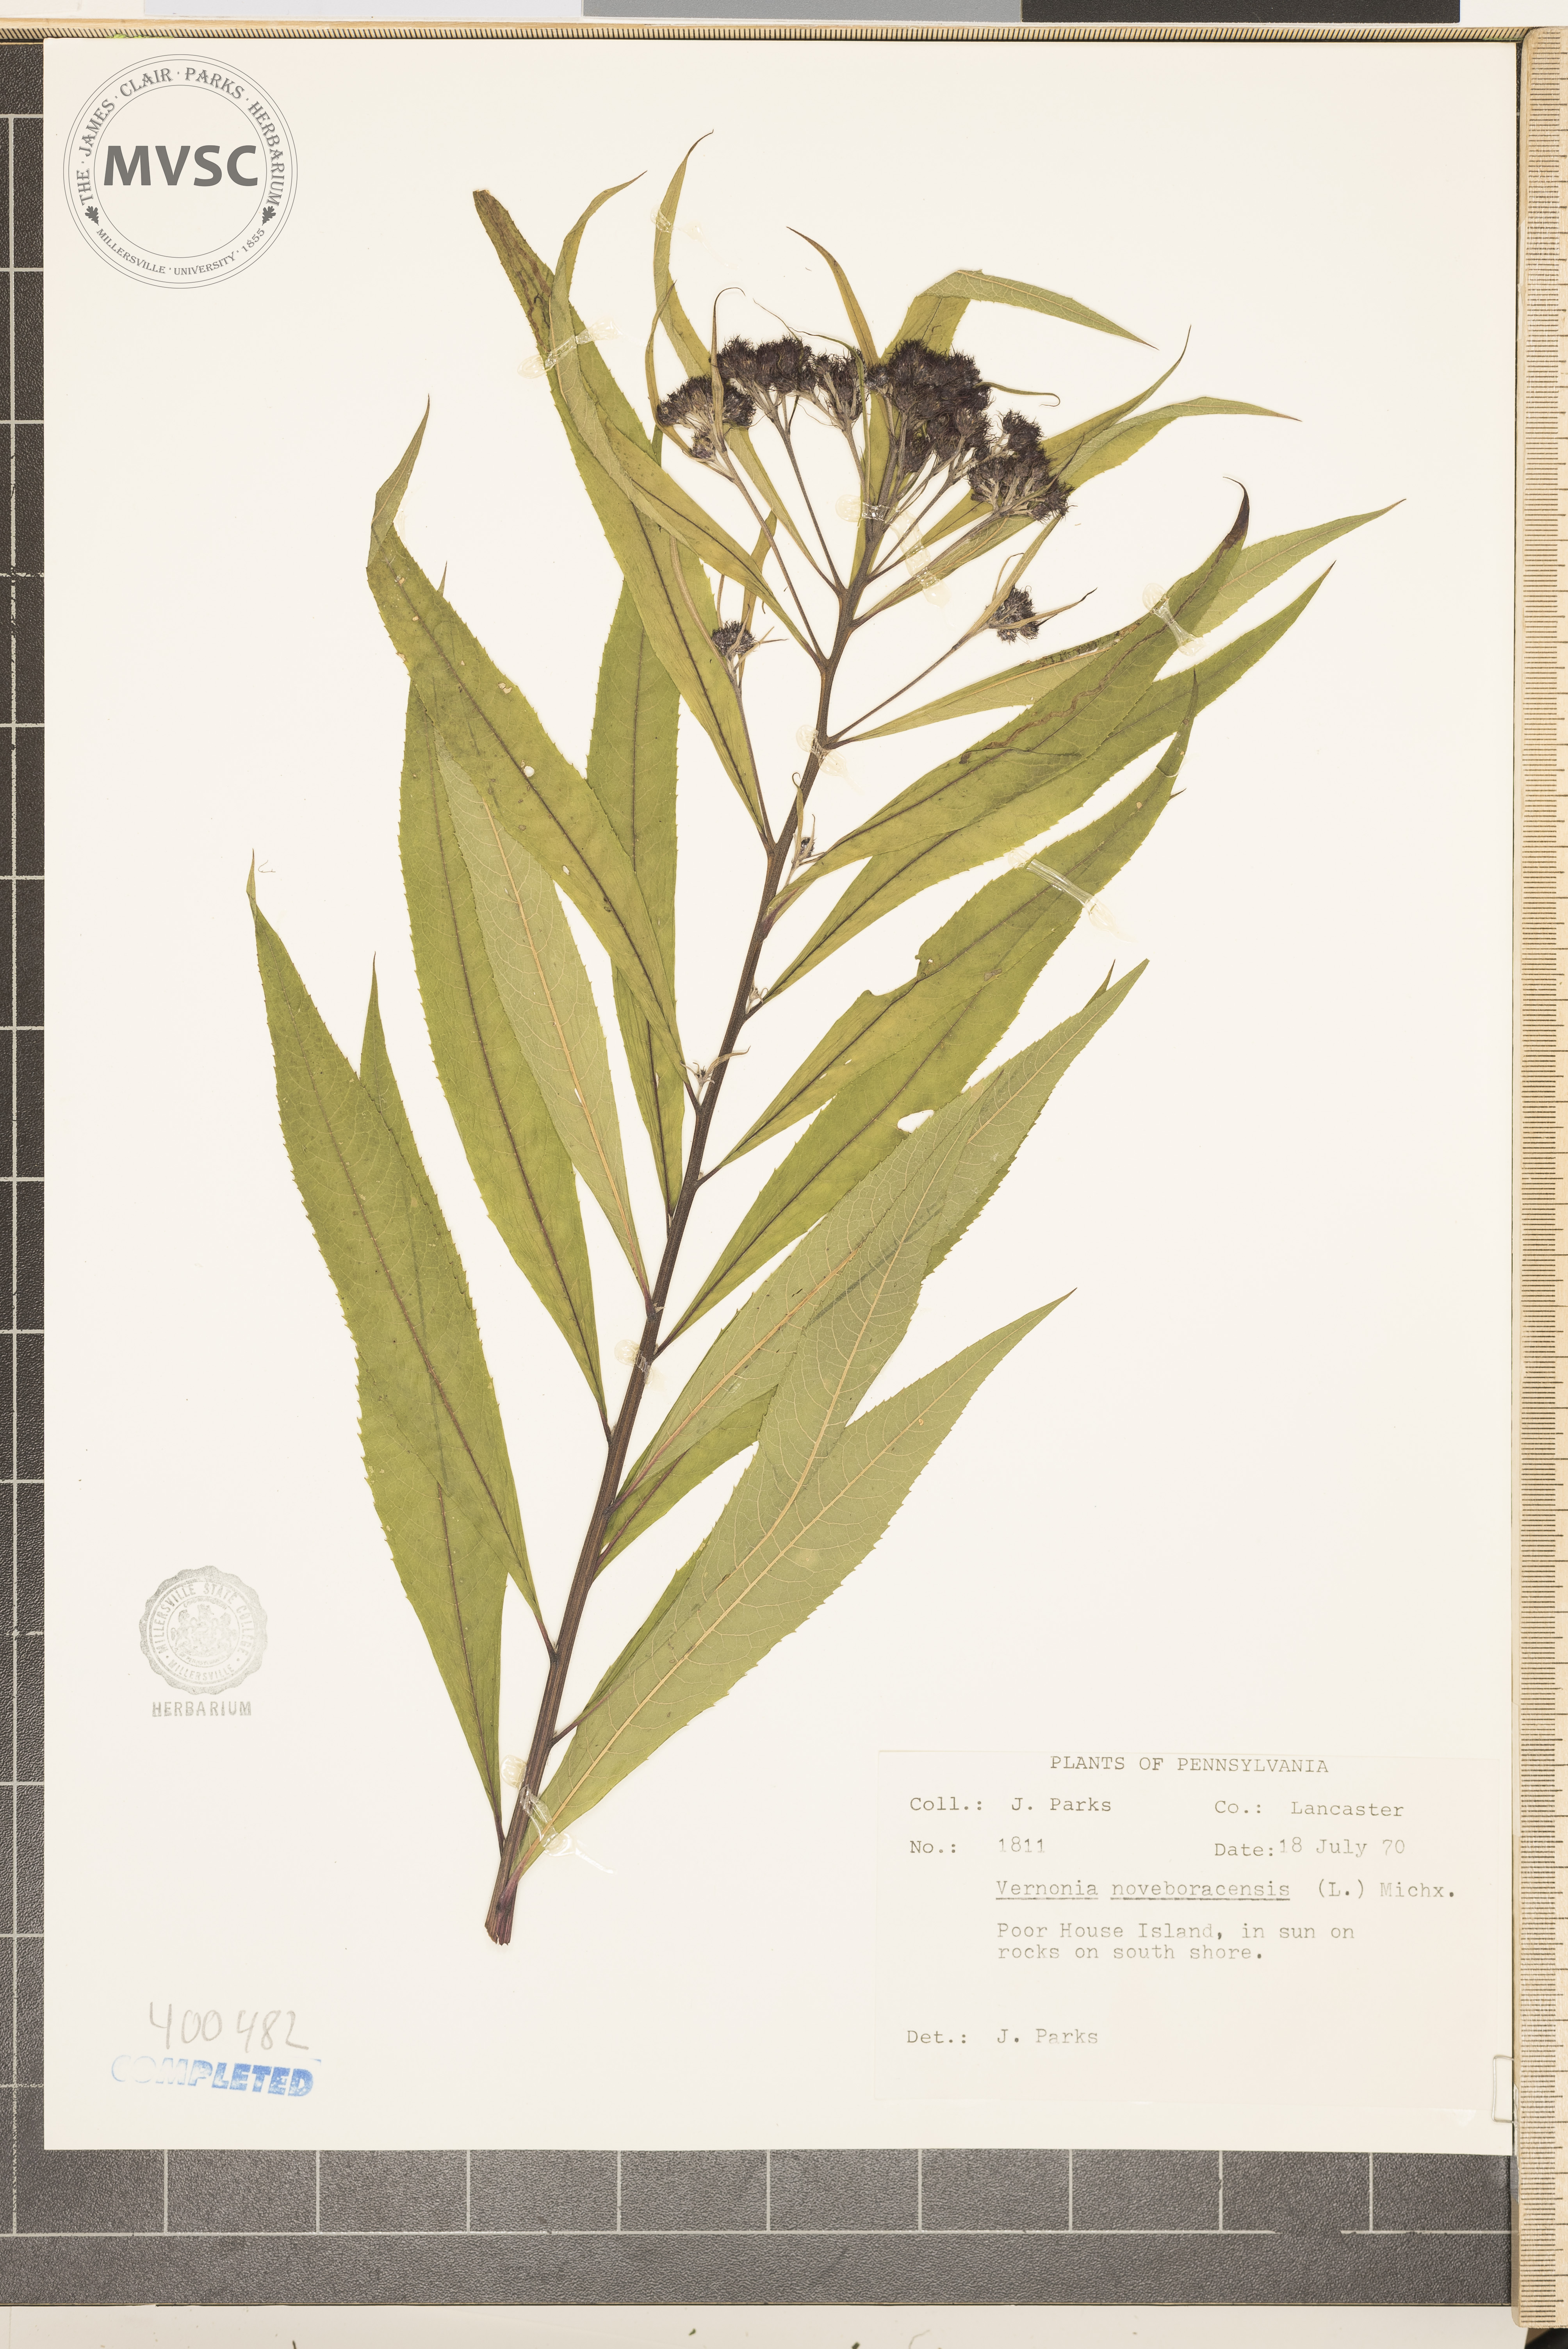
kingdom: Plantae
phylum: Tracheophyta
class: Magnoliopsida
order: Asterales
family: Asteraceae
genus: Vernonia
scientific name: Vernonia noveboracensis
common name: New York ironweed
